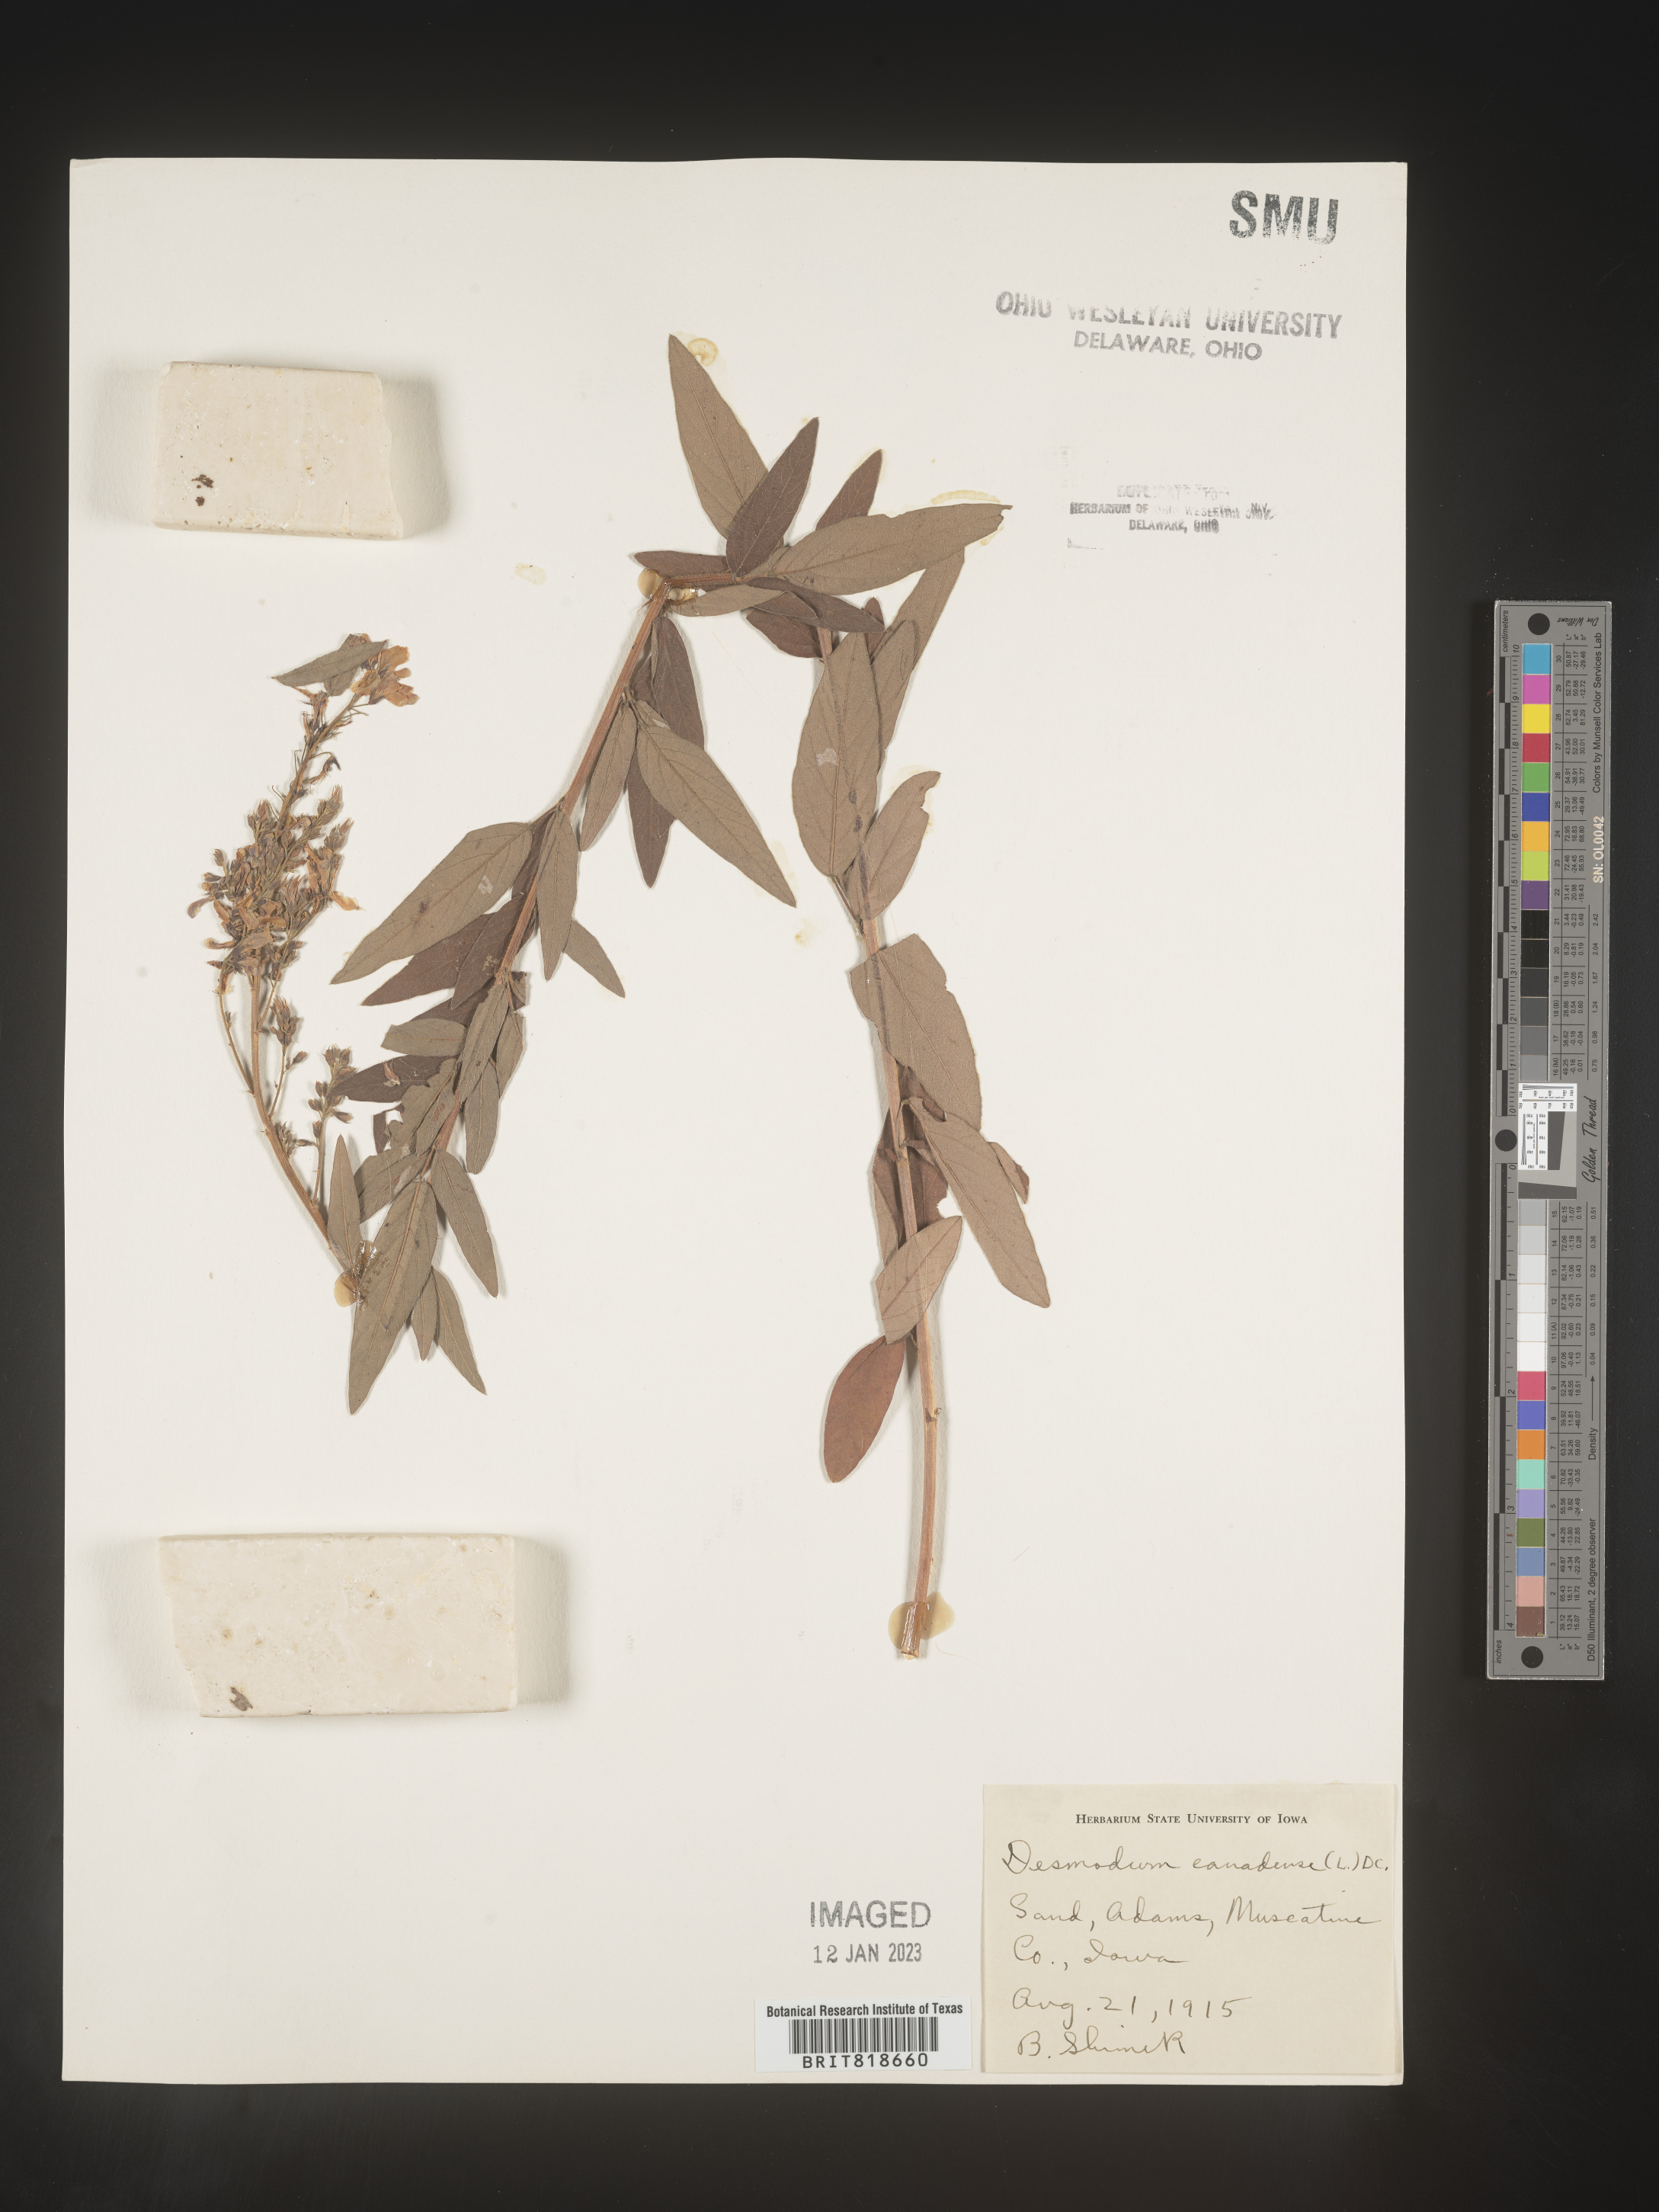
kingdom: Plantae
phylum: Tracheophyta
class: Magnoliopsida
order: Fabales
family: Fabaceae
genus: Desmodium
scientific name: Desmodium canadense
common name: Canada tick-trefoil
